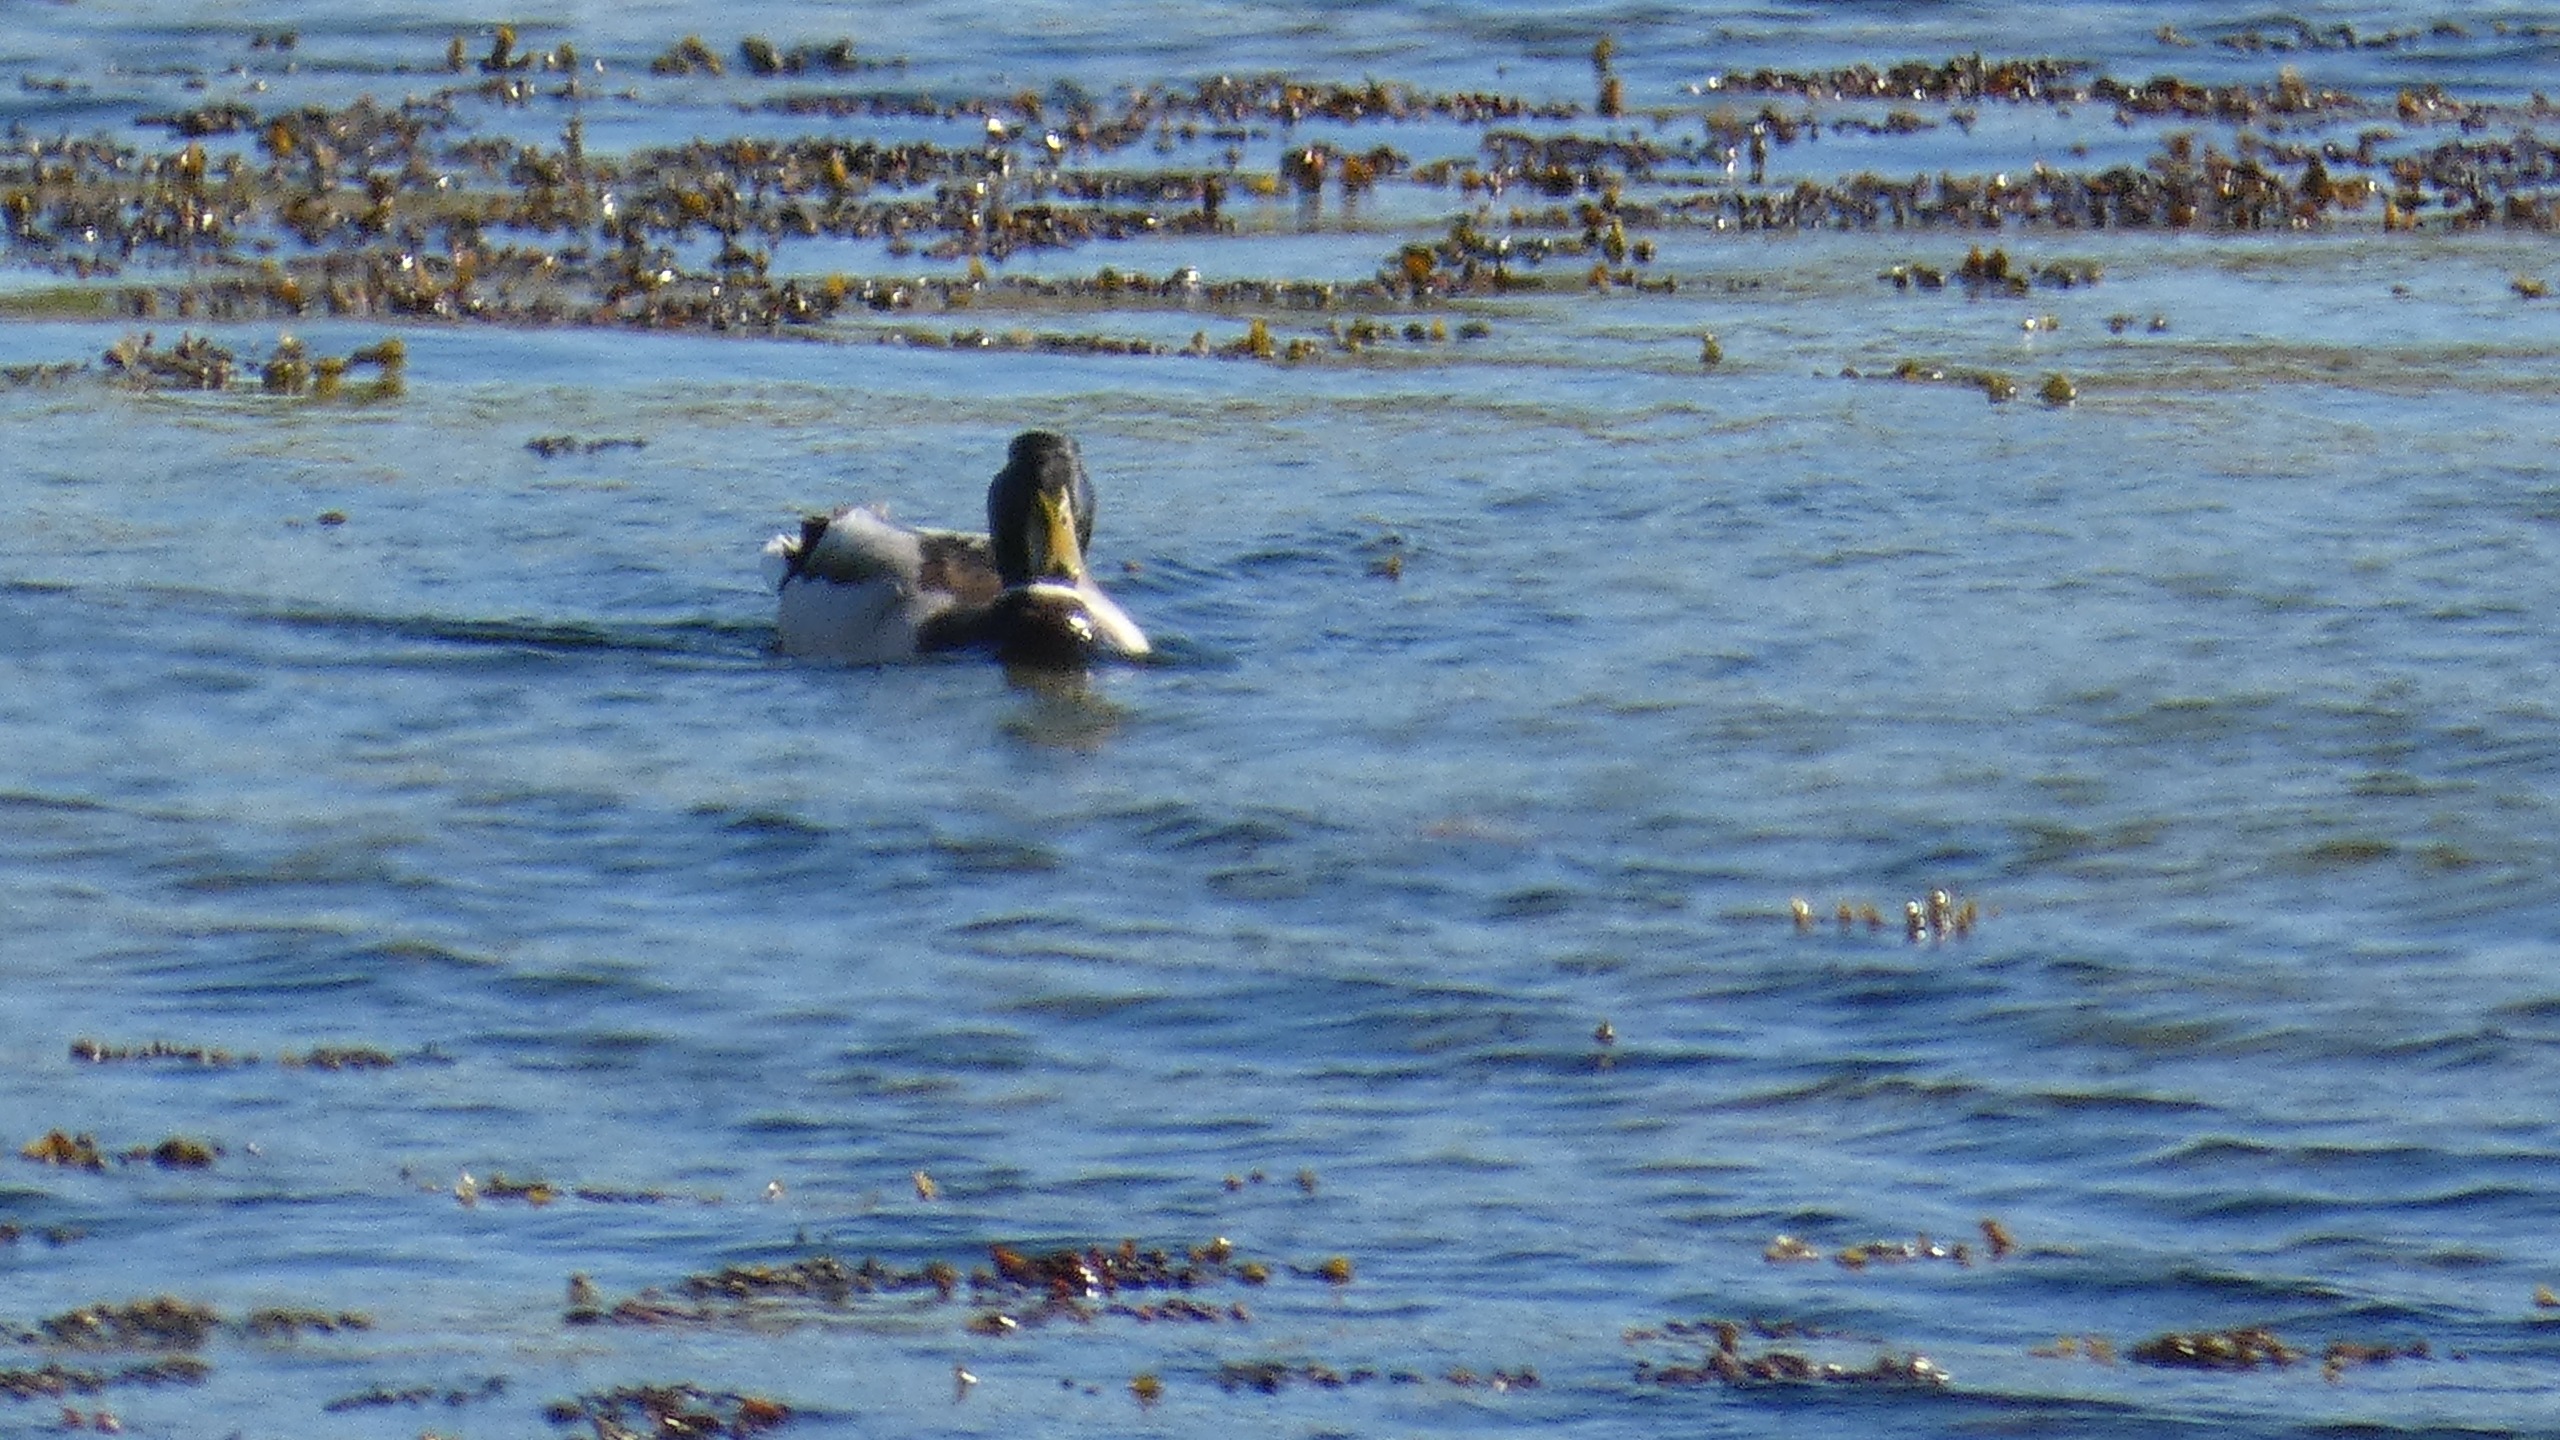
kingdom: Animalia
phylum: Chordata
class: Aves
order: Anseriformes
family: Anatidae
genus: Anas
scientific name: Anas platyrhynchos
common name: Gråand
